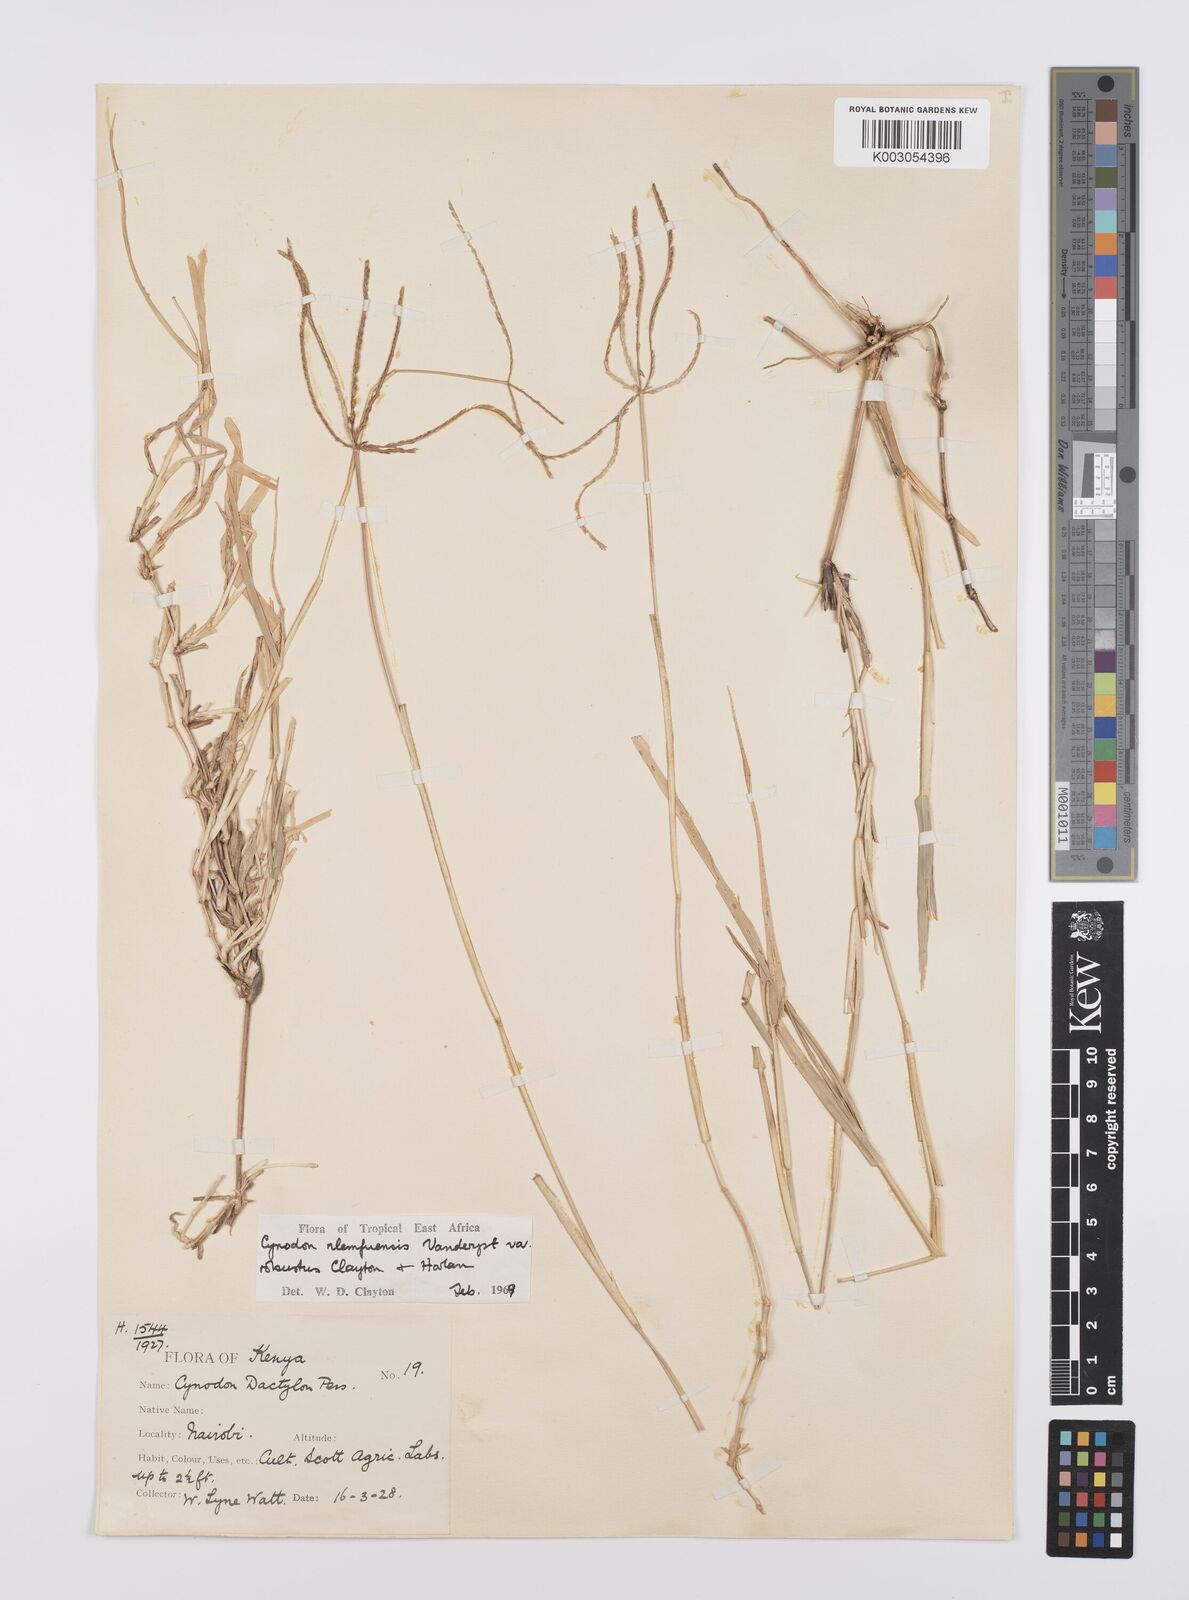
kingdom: Plantae
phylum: Tracheophyta
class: Liliopsida
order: Poales
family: Poaceae
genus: Cynodon
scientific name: Cynodon nlemfuensis
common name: African bermudagrass
